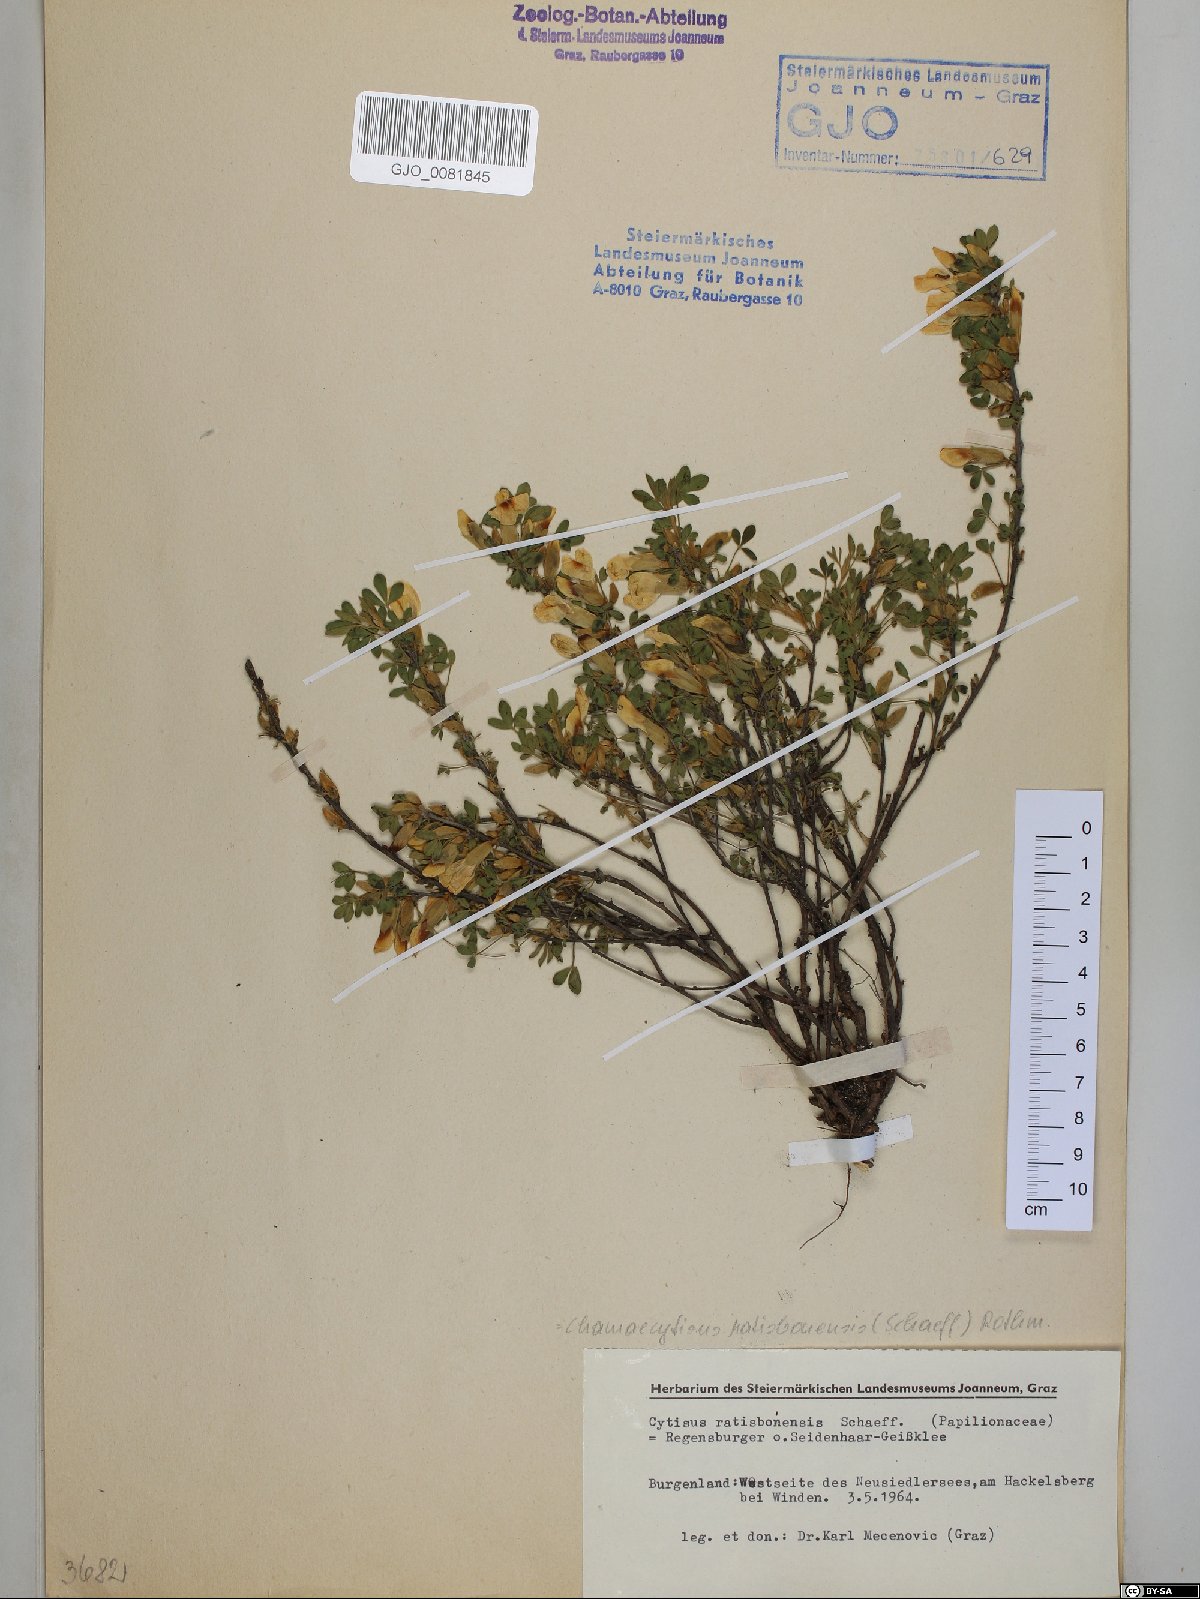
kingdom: Plantae
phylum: Tracheophyta
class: Magnoliopsida
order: Fabales
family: Fabaceae
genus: Chamaecytisus
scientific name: Chamaecytisus ratisbonensis
